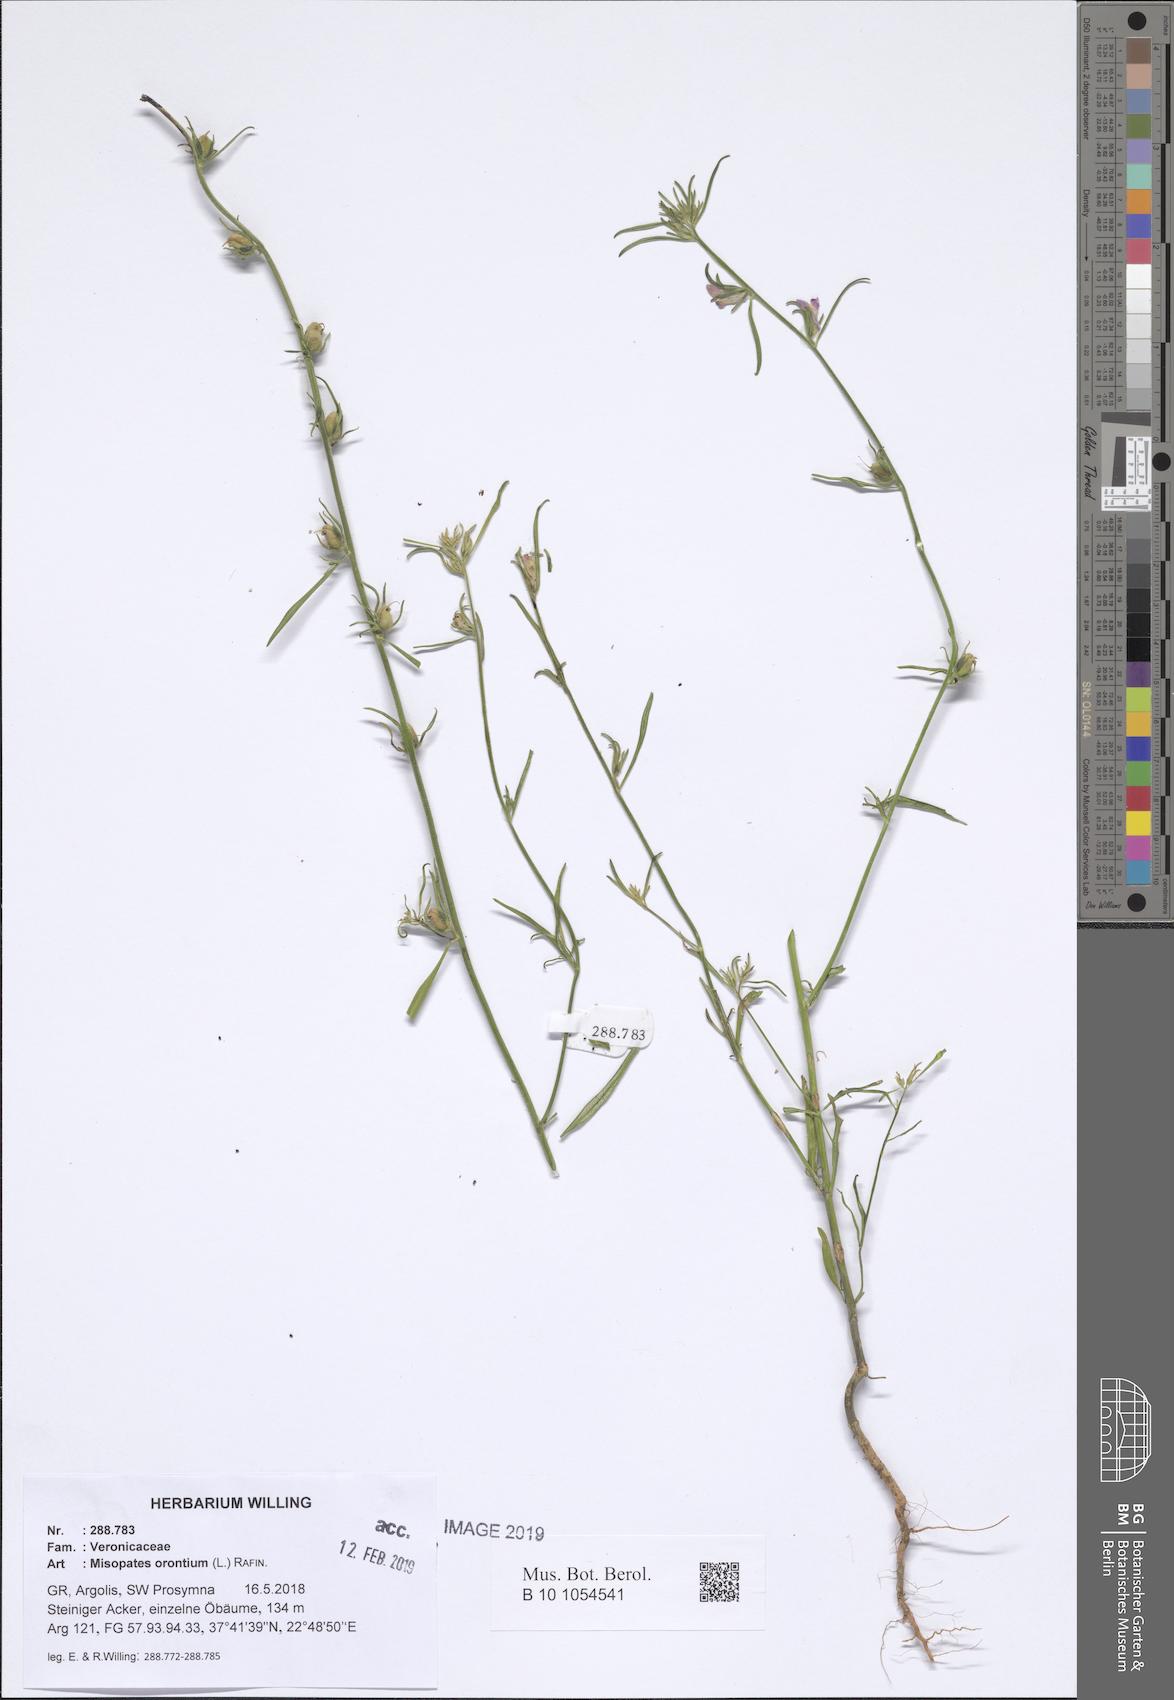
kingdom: Plantae
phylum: Tracheophyta
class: Magnoliopsida
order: Lamiales
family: Plantaginaceae
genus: Misopates
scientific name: Misopates orontium
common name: Weasel's-snout
